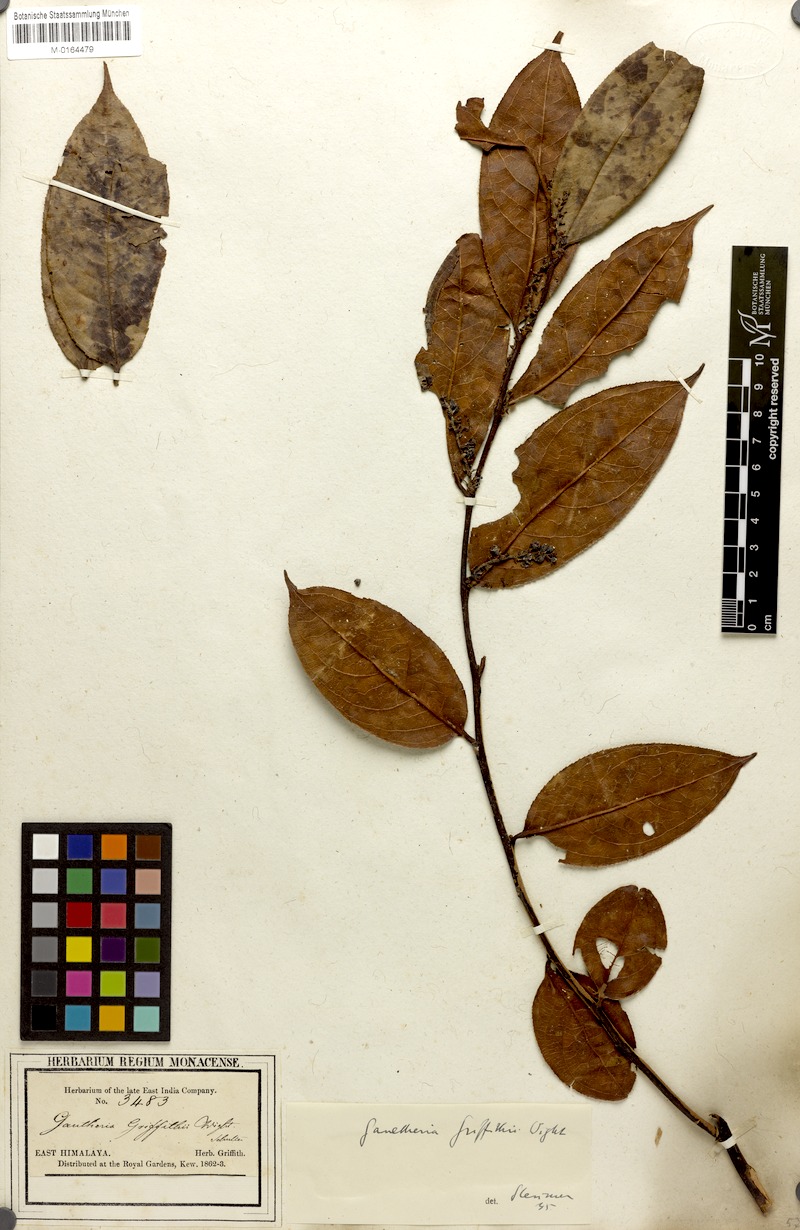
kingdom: Plantae
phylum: Tracheophyta
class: Magnoliopsida
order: Ericales
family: Ericaceae
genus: Gaultheria
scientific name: Gaultheria griffithiana
